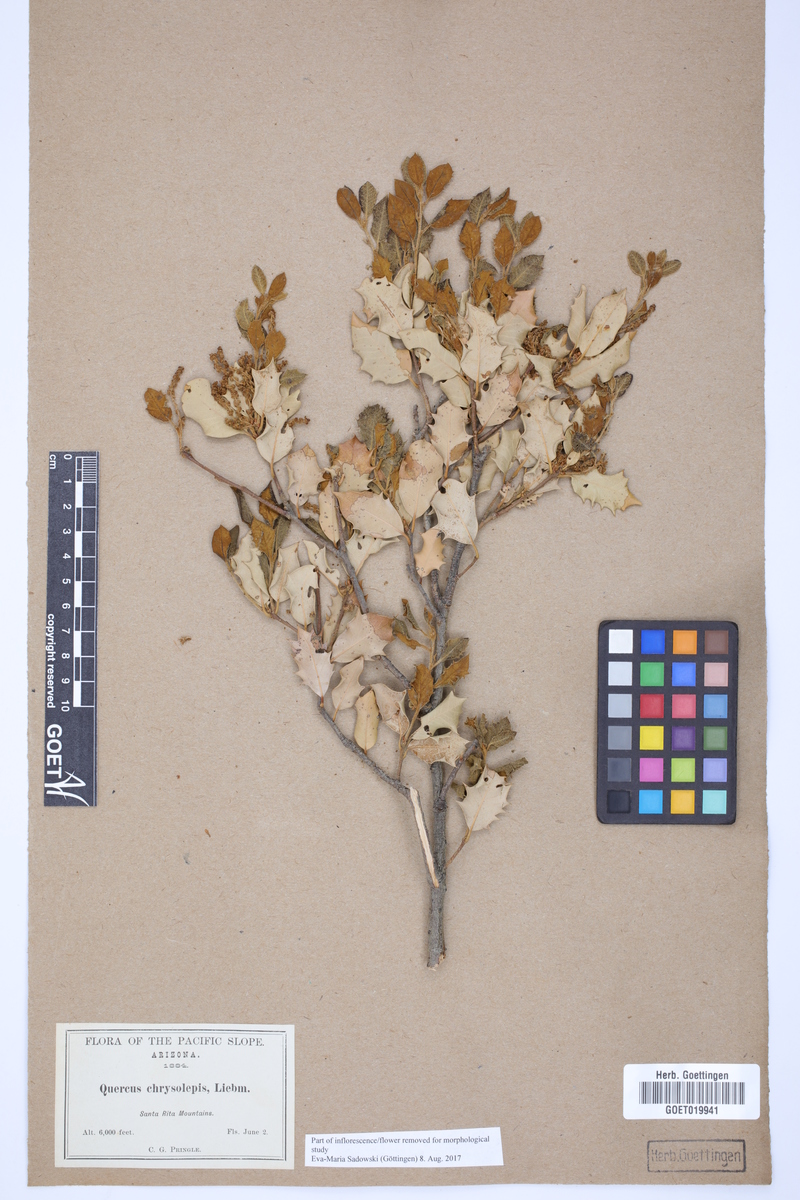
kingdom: Plantae
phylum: Tracheophyta
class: Magnoliopsida
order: Fagales
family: Fagaceae
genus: Quercus
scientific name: Quercus chrysolepis
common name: Canyon live oak
